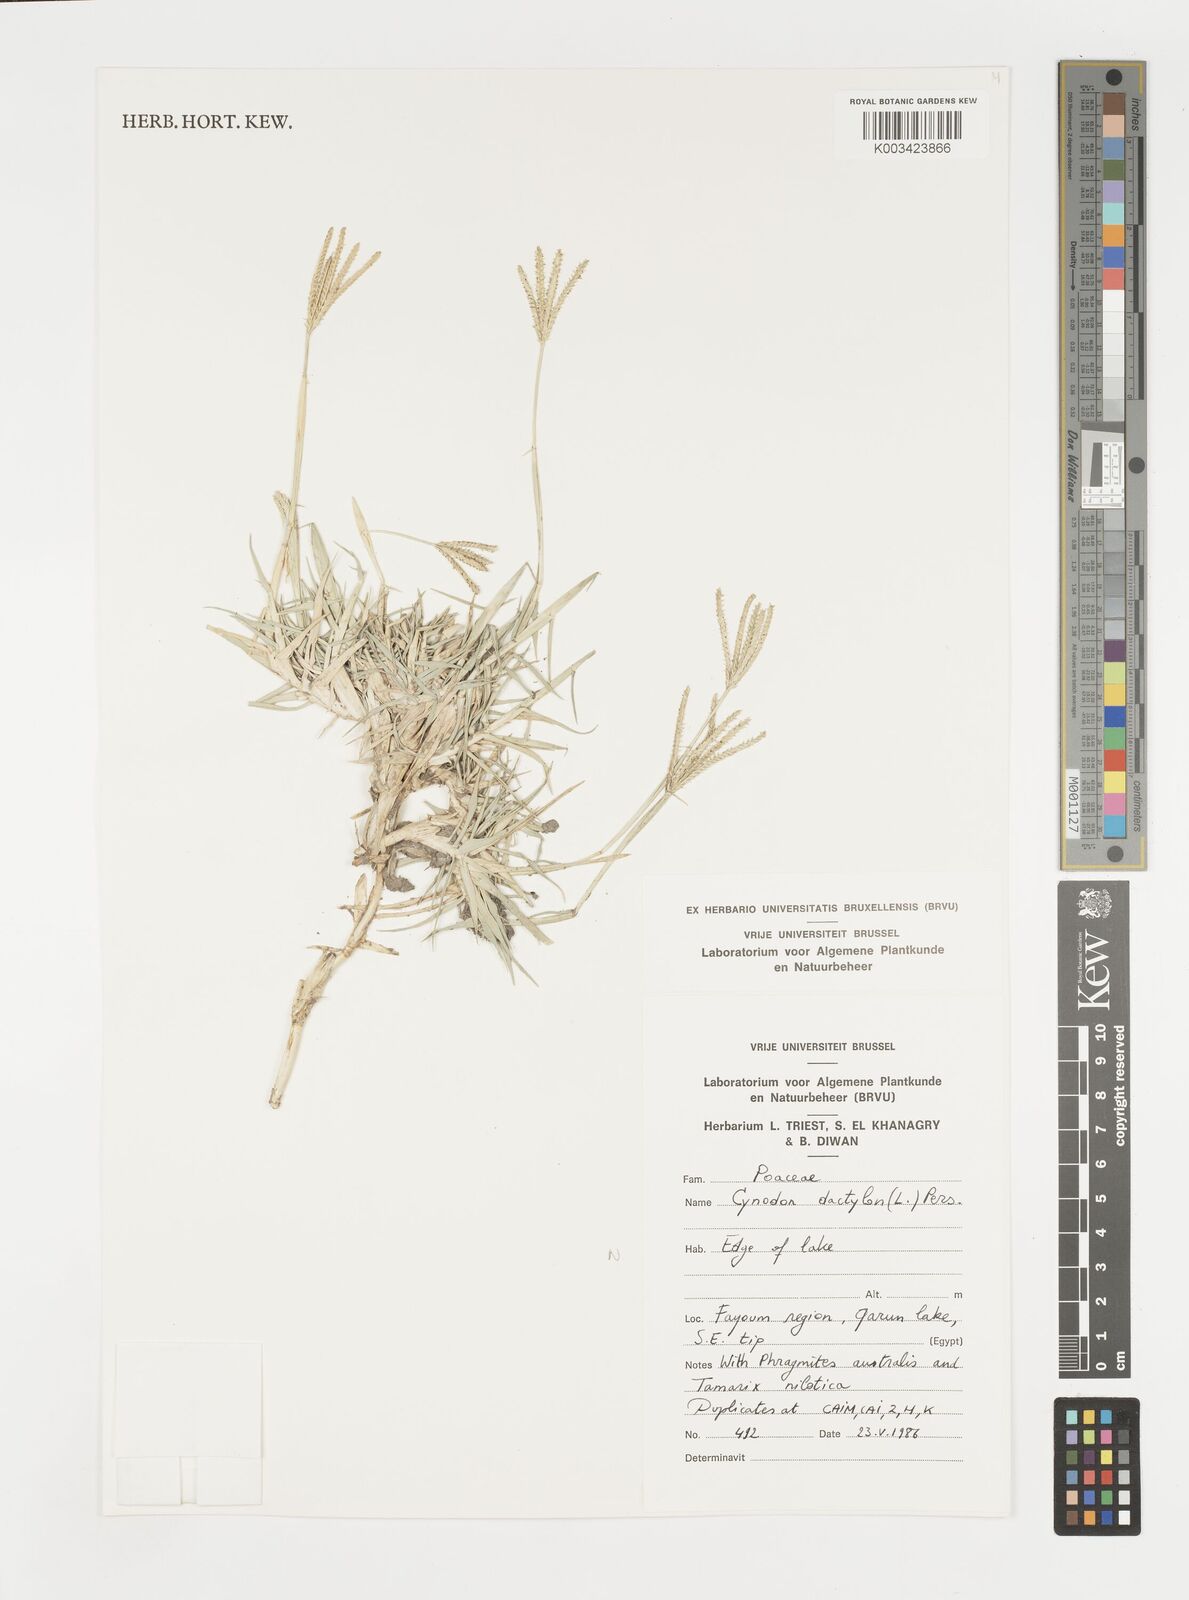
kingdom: Plantae
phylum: Tracheophyta
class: Liliopsida
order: Poales
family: Poaceae
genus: Cynodon
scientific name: Cynodon dactylon
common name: Bermuda grass
